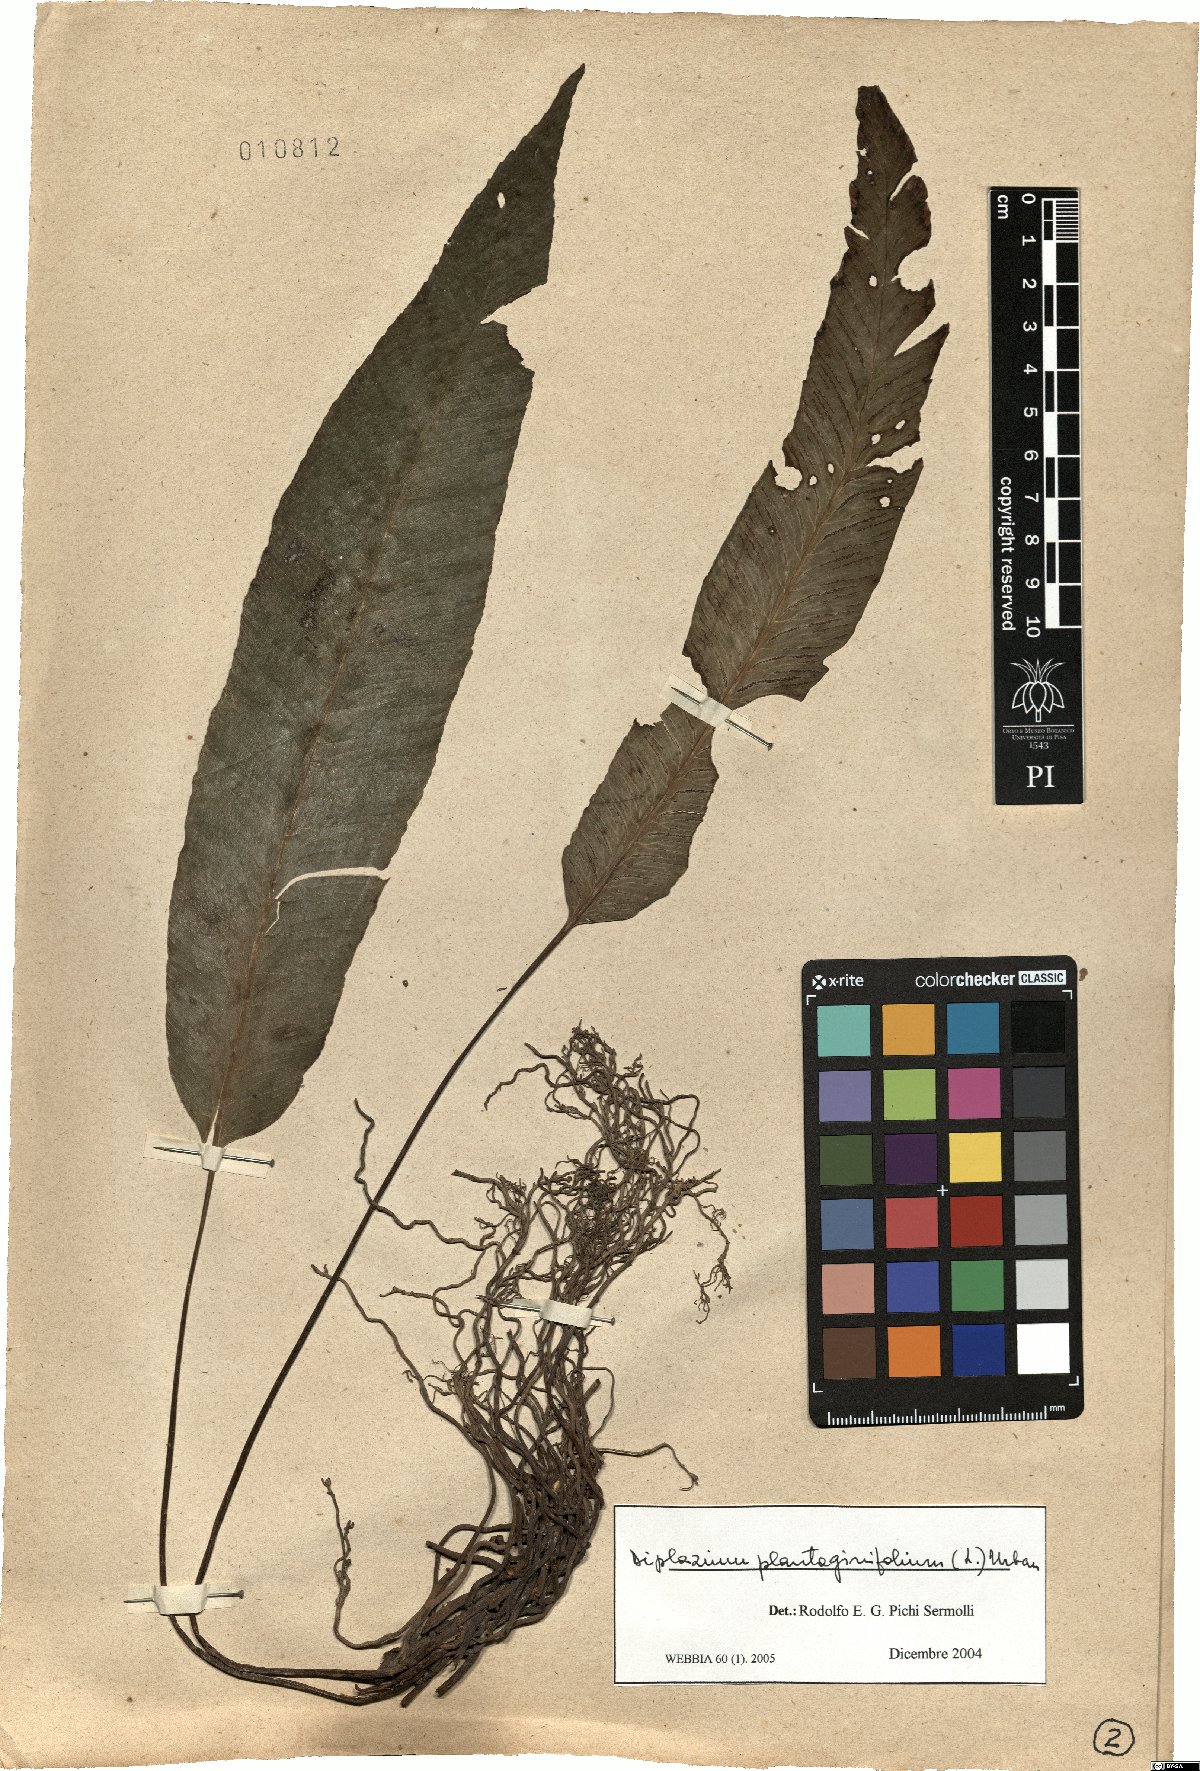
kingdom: Plantae
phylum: Tracheophyta
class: Polypodiopsida
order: Polypodiales
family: Athyriaceae
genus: Diplazium
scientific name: Diplazium plantaginifolium
